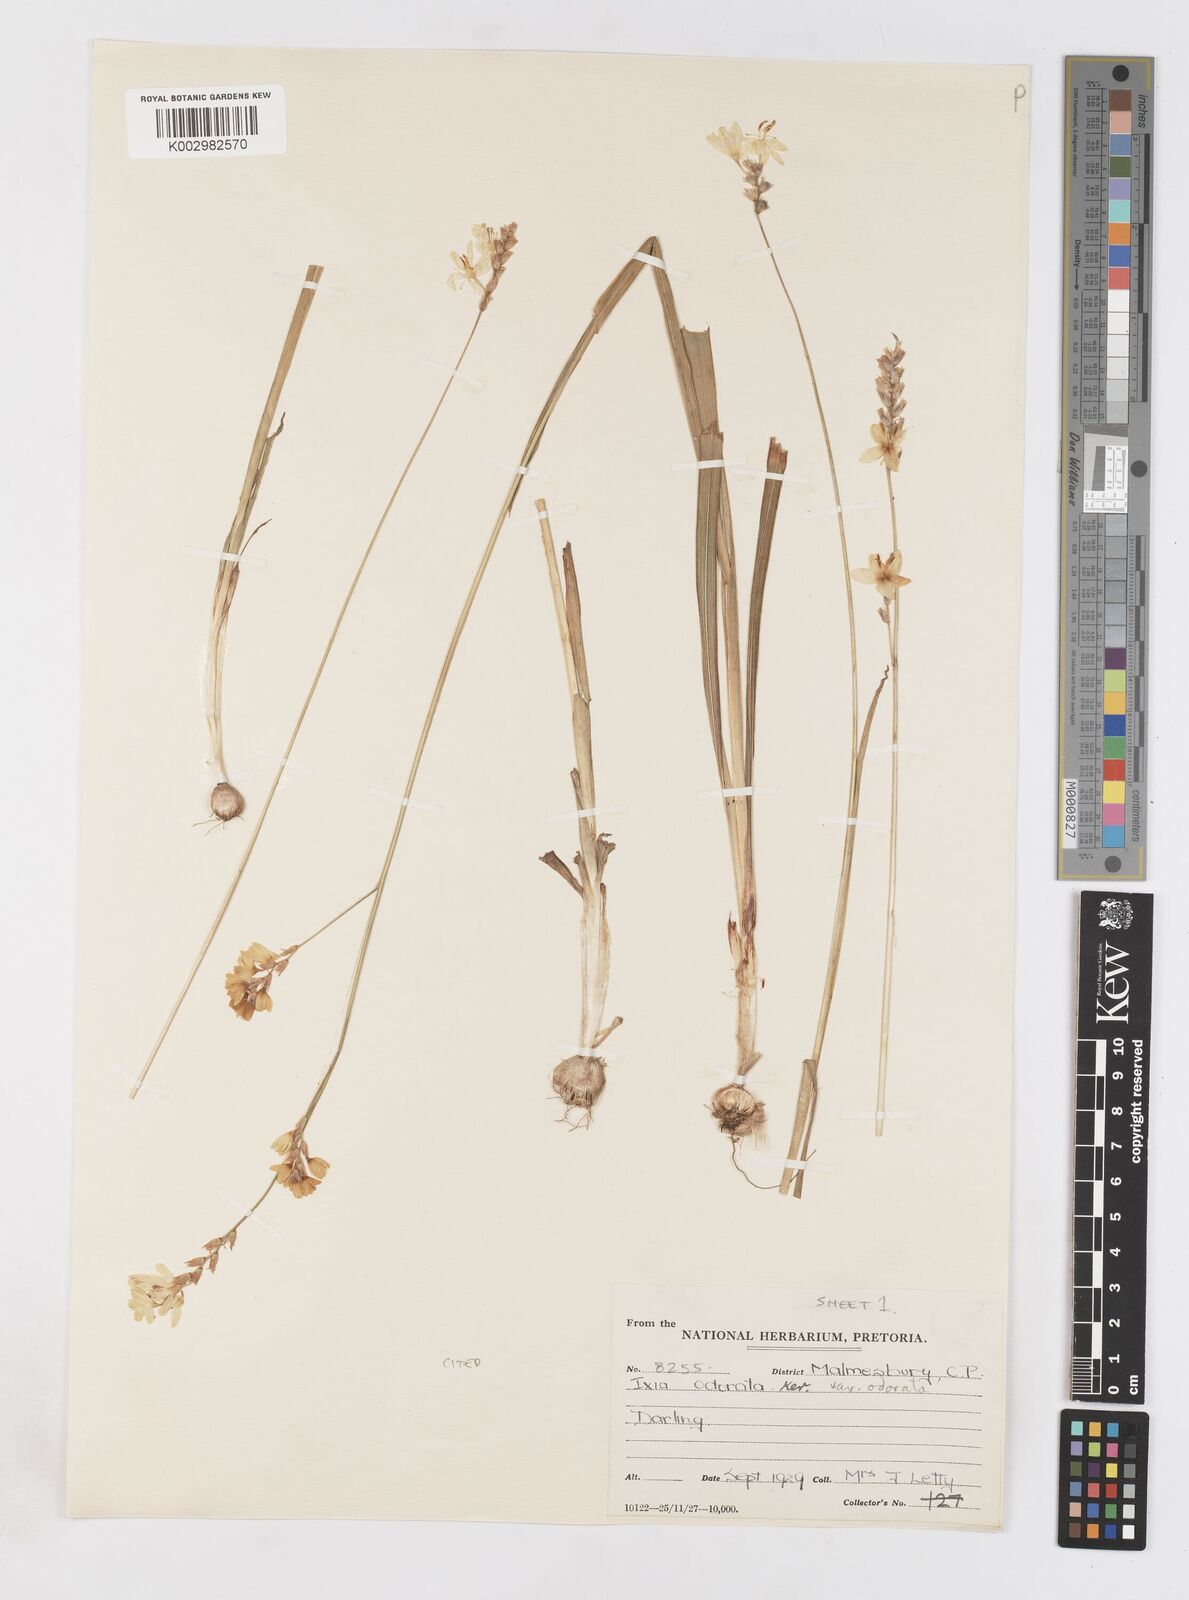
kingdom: Plantae
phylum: Tracheophyta
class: Liliopsida
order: Asparagales
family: Iridaceae
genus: Ixia
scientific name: Ixia odorata
